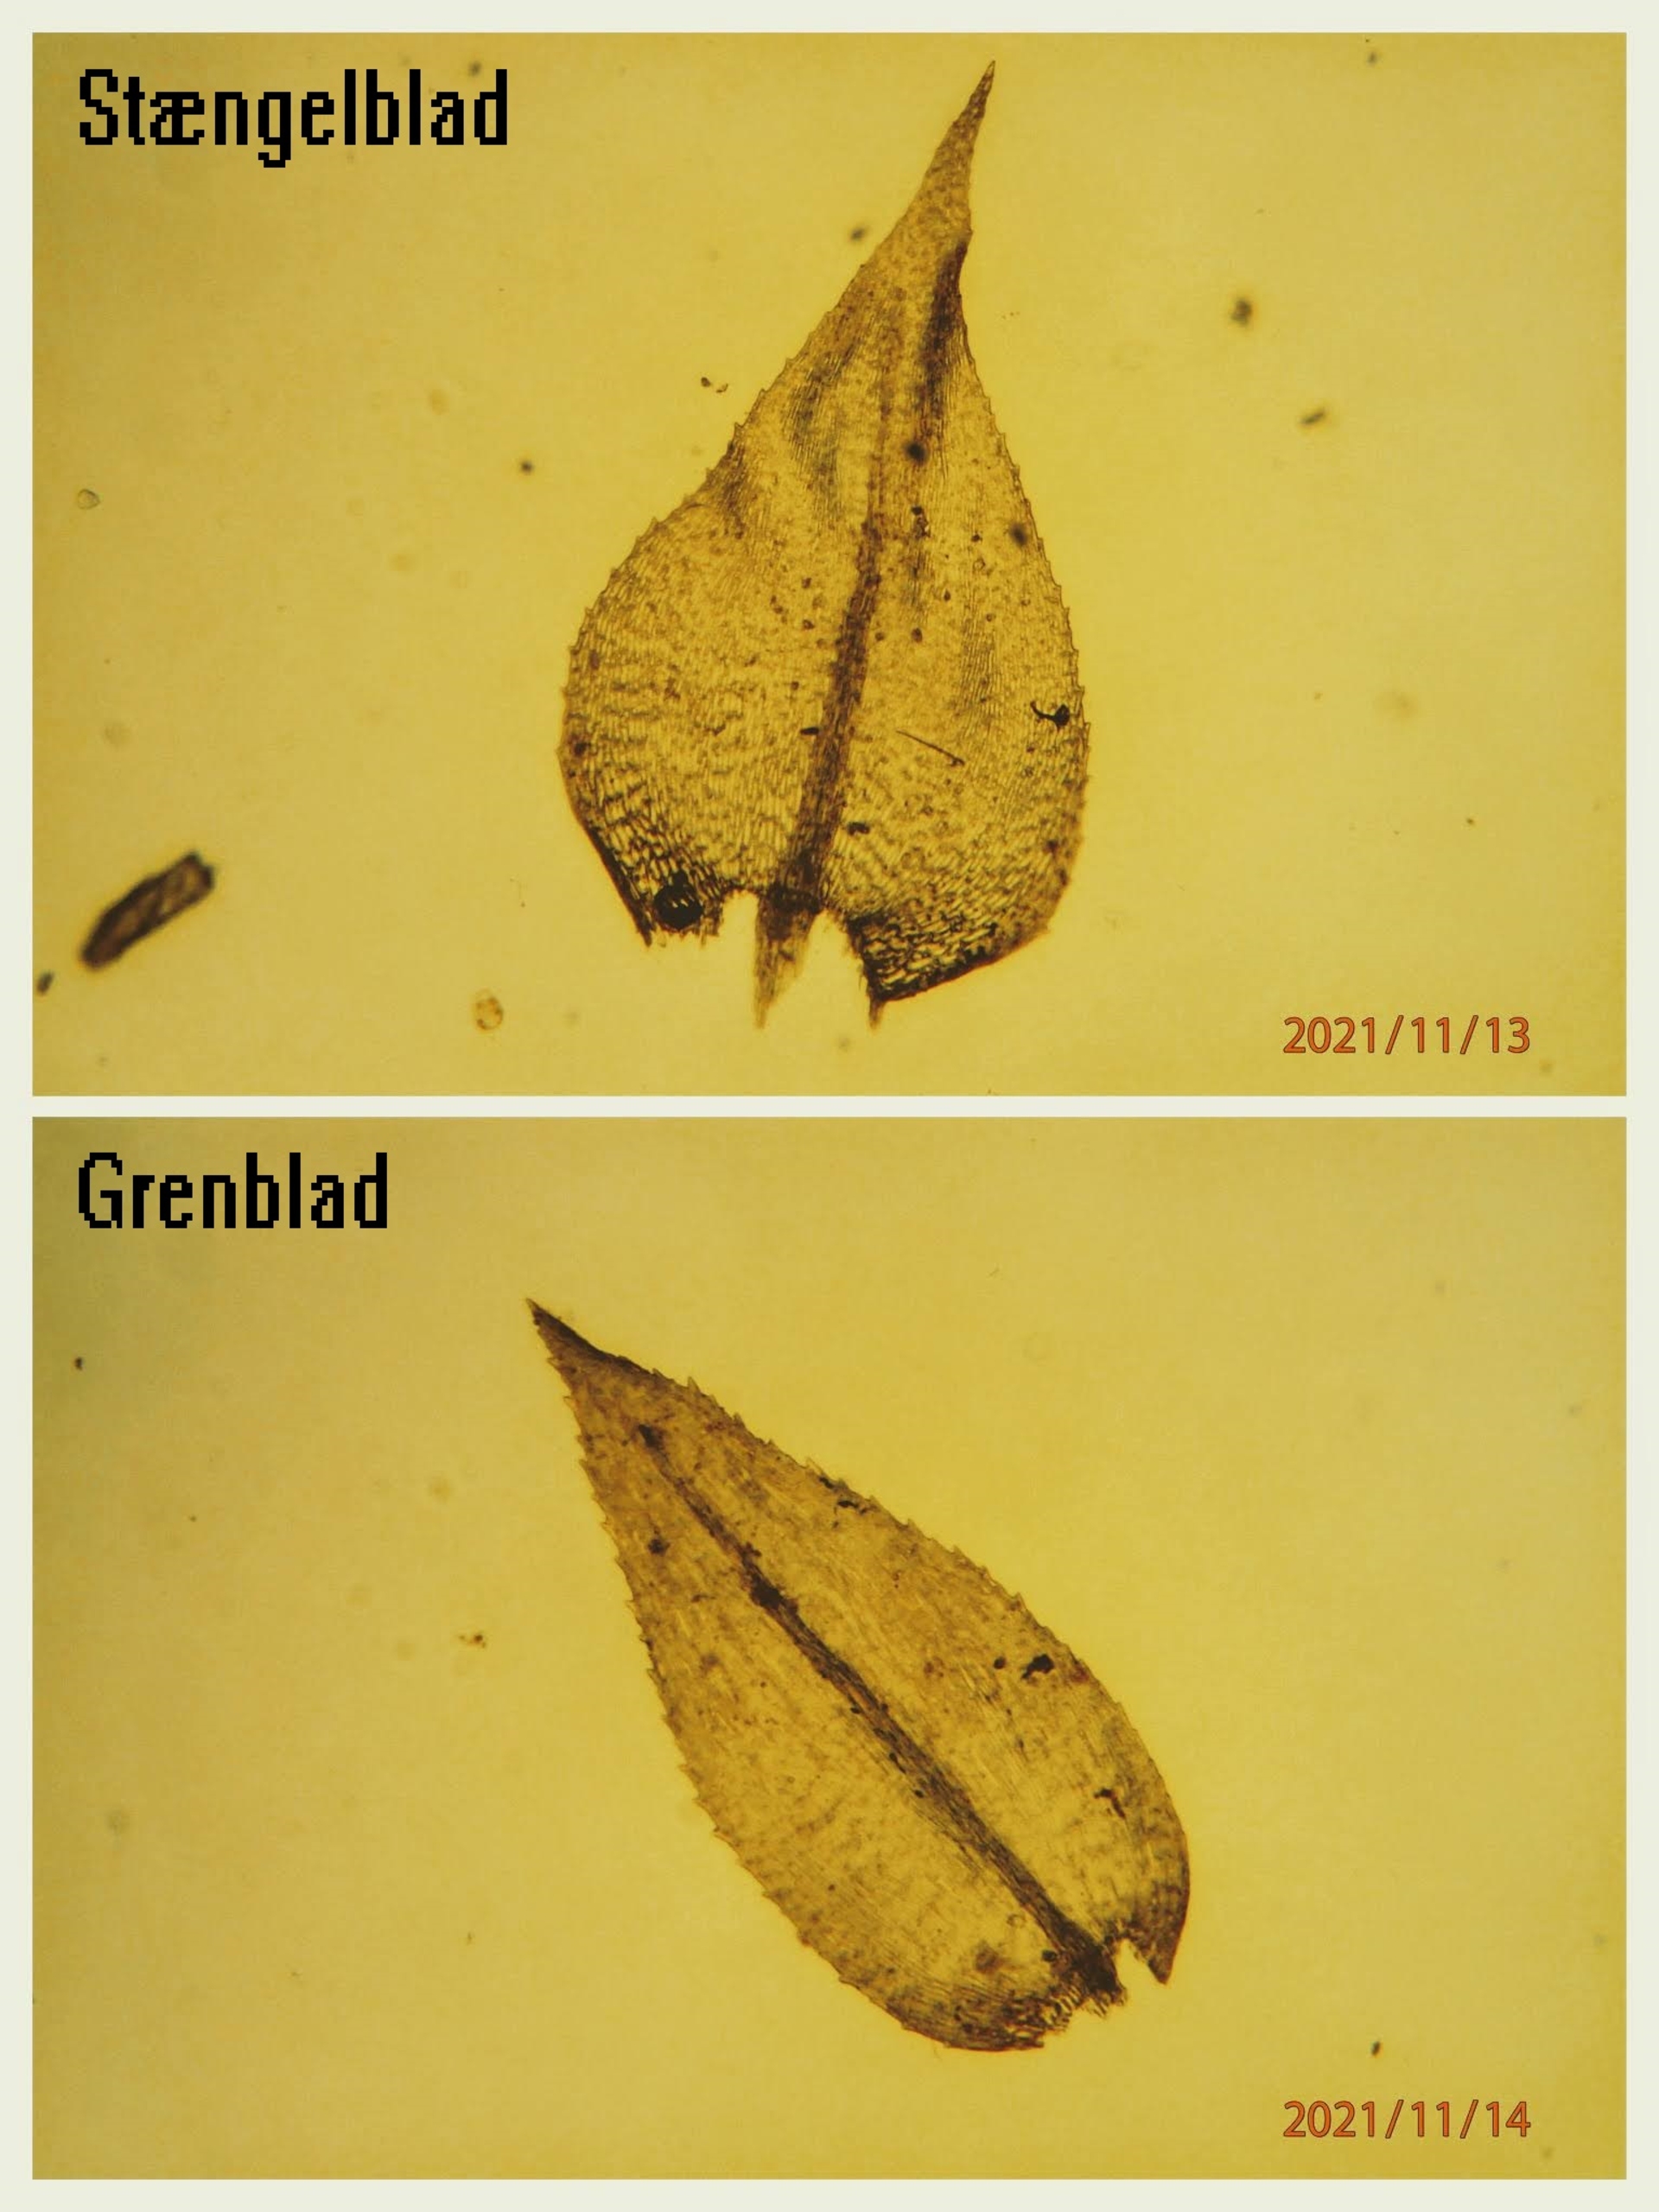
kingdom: Plantae
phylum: Bryophyta
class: Bryopsida
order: Hypnales
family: Brachytheciaceae
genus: Oxyrrhynchium
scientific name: Oxyrrhynchium hians
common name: Ler-vortetand
